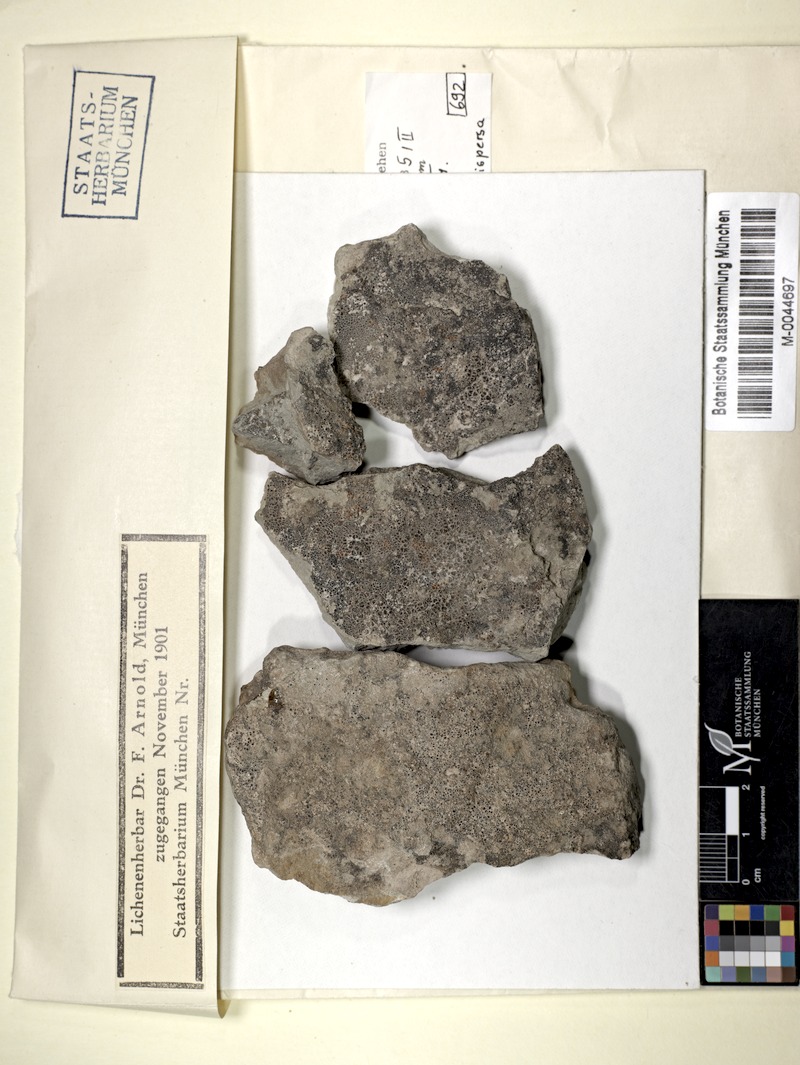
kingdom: Fungi
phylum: Ascomycota
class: Arthoniomycetes
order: Arthoniales
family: Arthoniaceae
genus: Arthonia
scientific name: Arthonia clemens
